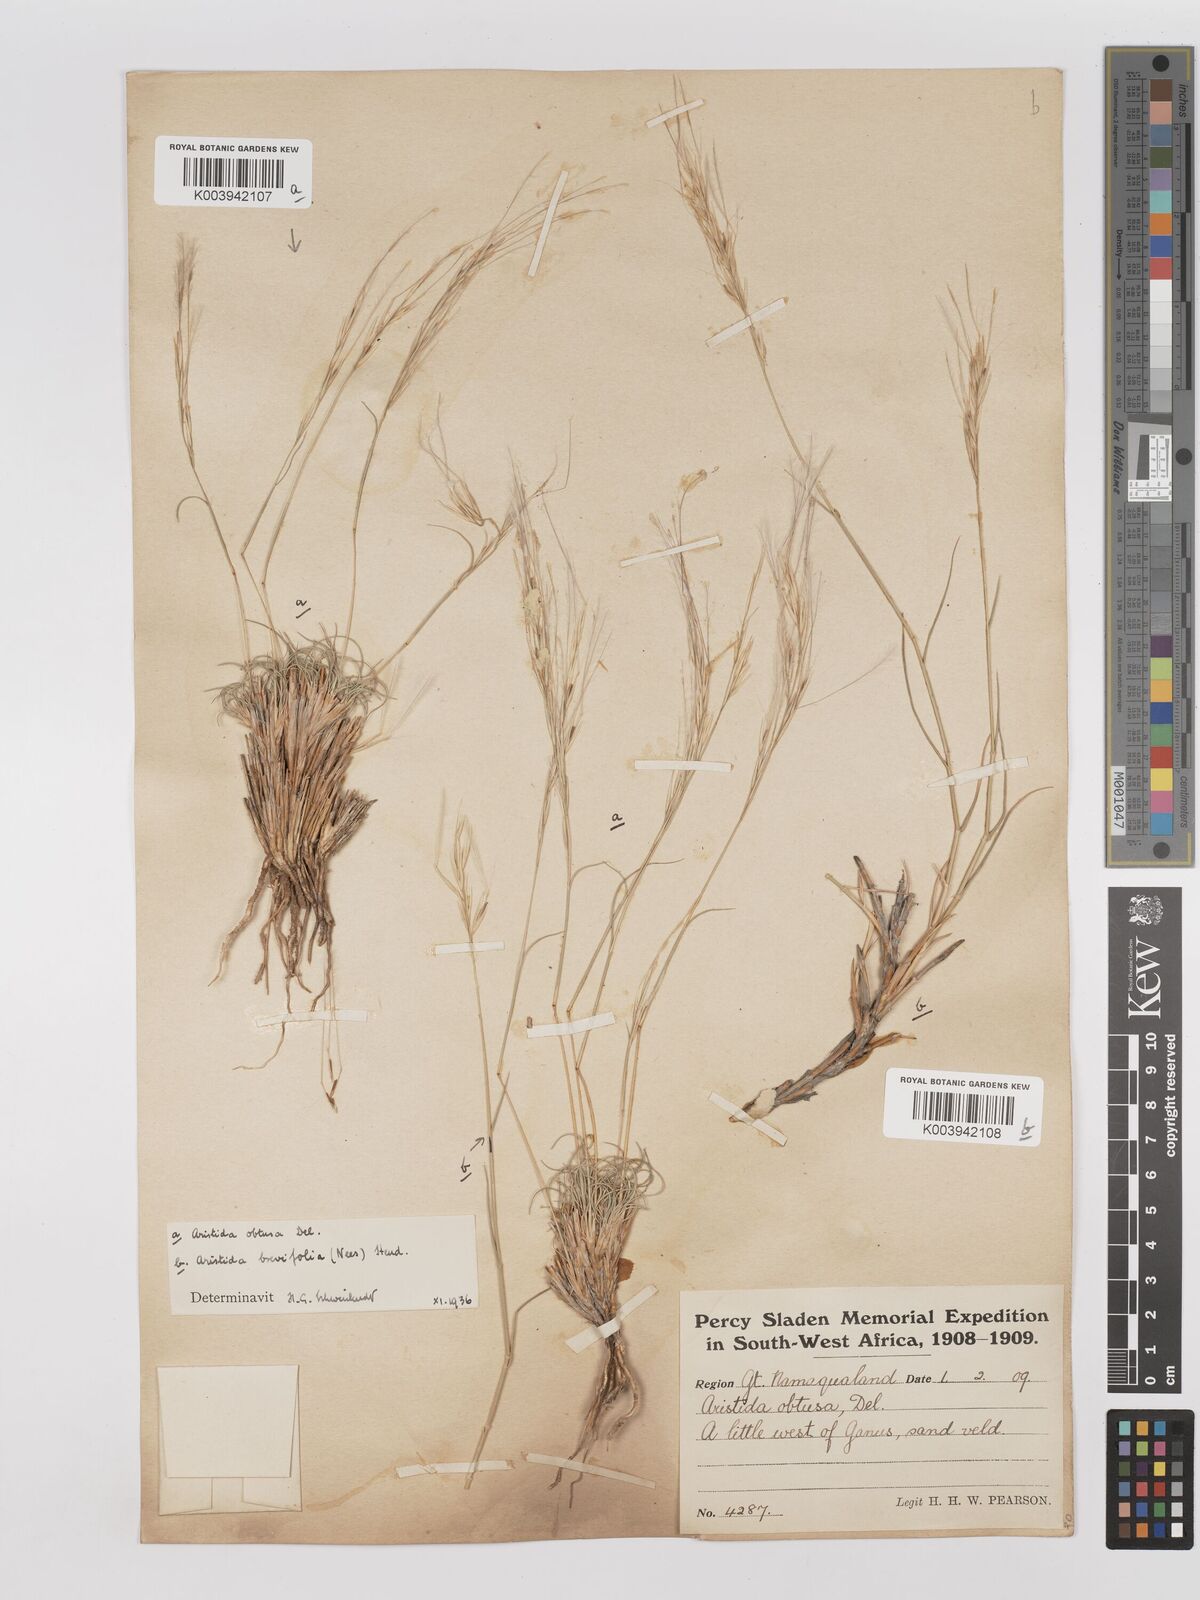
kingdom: Plantae
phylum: Tracheophyta
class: Liliopsida
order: Poales
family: Poaceae
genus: Stipagrostis
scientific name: Stipagrostis obtusa
